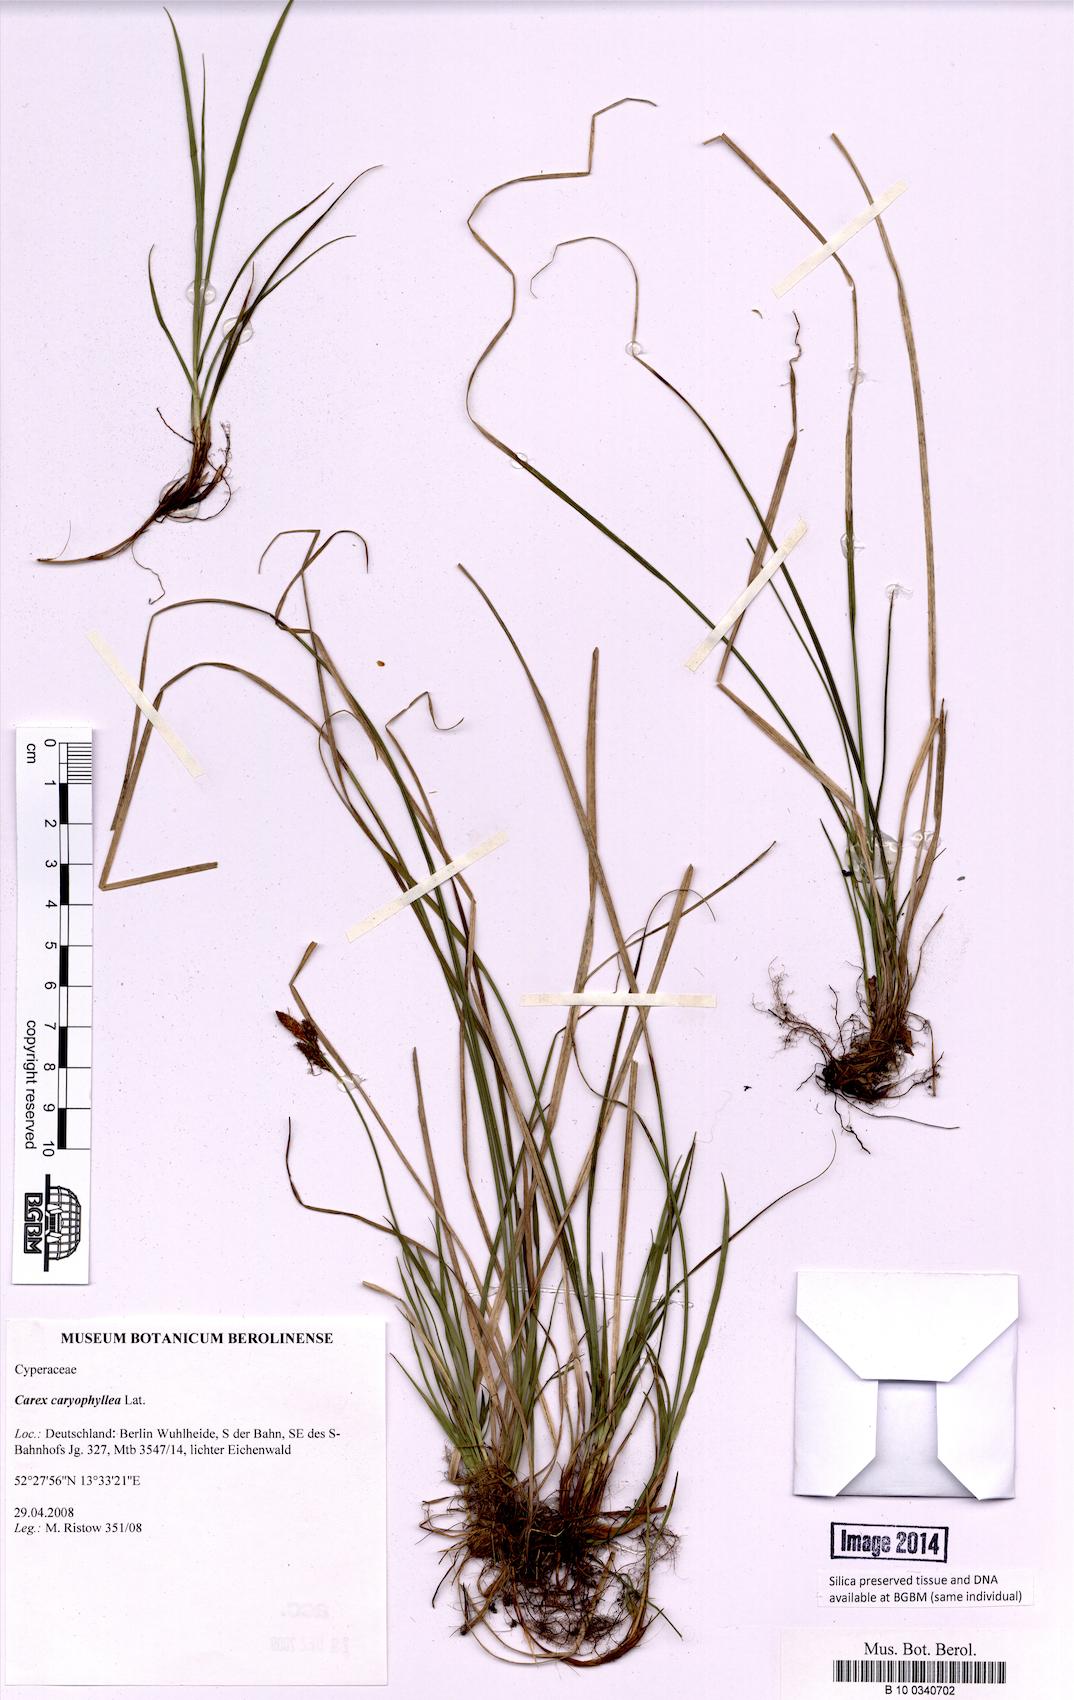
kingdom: Plantae
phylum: Tracheophyta
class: Liliopsida
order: Poales
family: Cyperaceae
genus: Carex
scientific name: Carex caryophyllea
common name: Spring sedge
